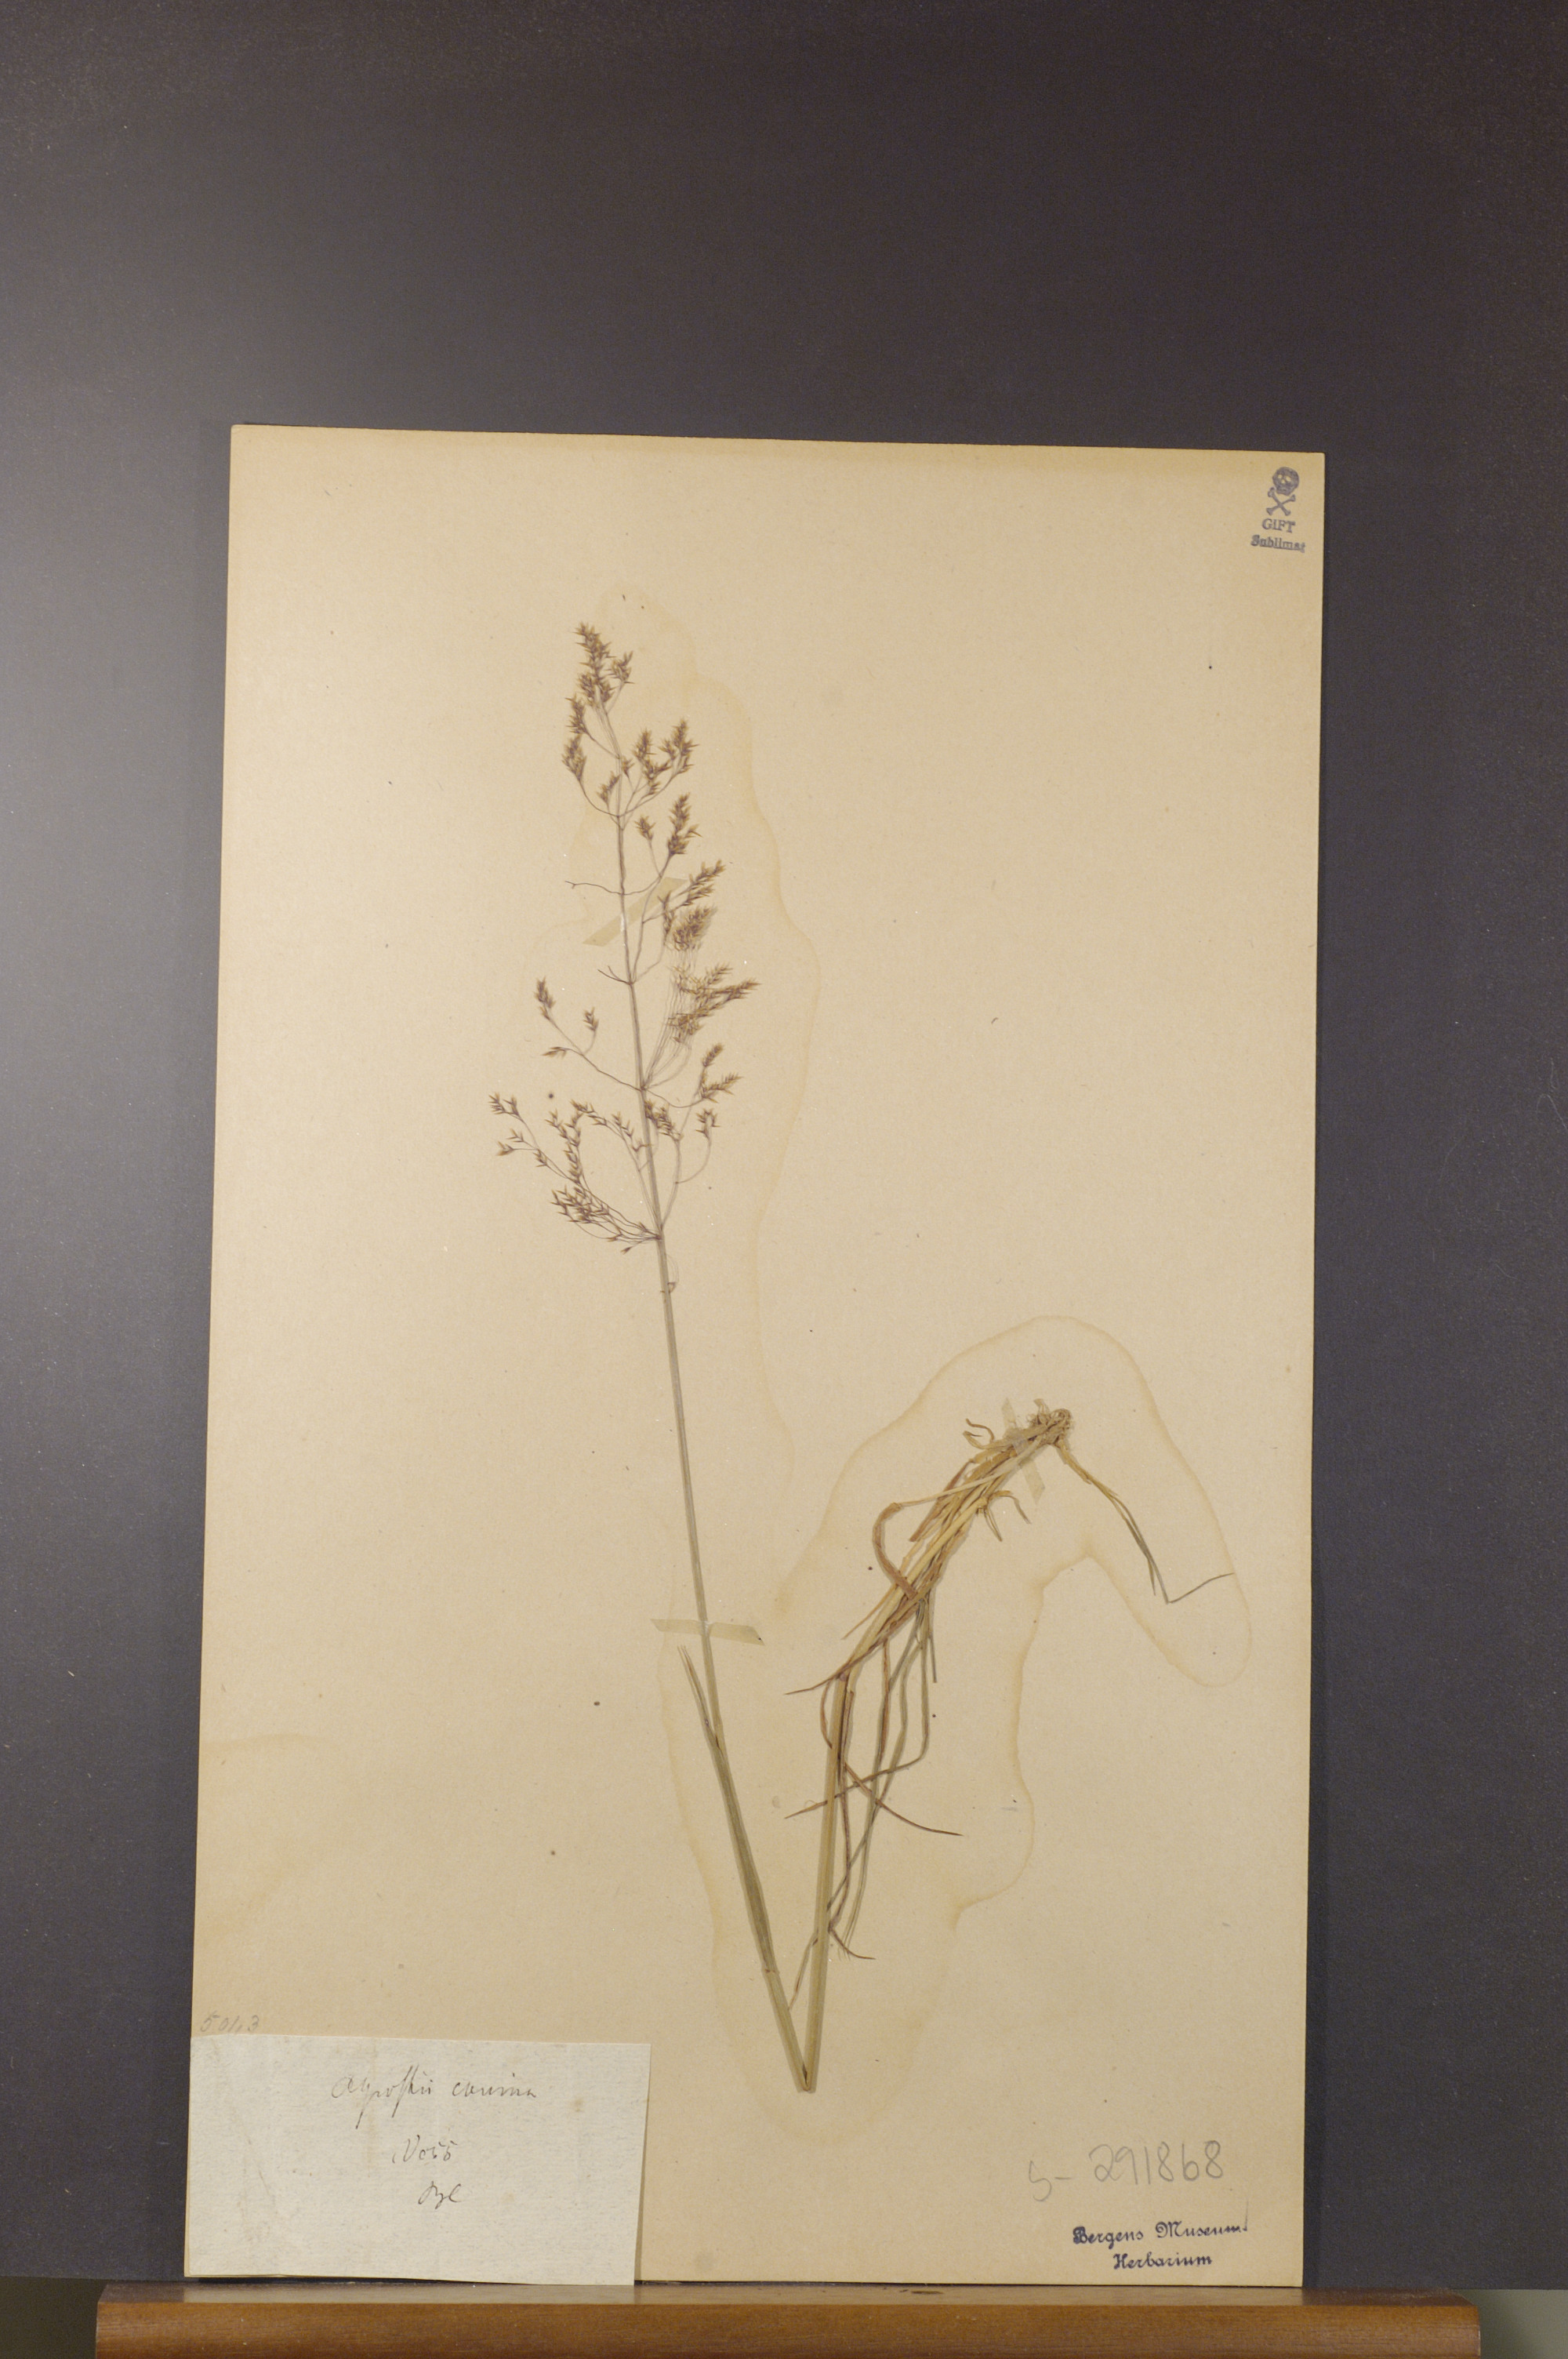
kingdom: Plantae
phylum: Tracheophyta
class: Liliopsida
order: Poales
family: Poaceae
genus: Agrostis
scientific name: Agrostis canina
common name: Velvet bent
